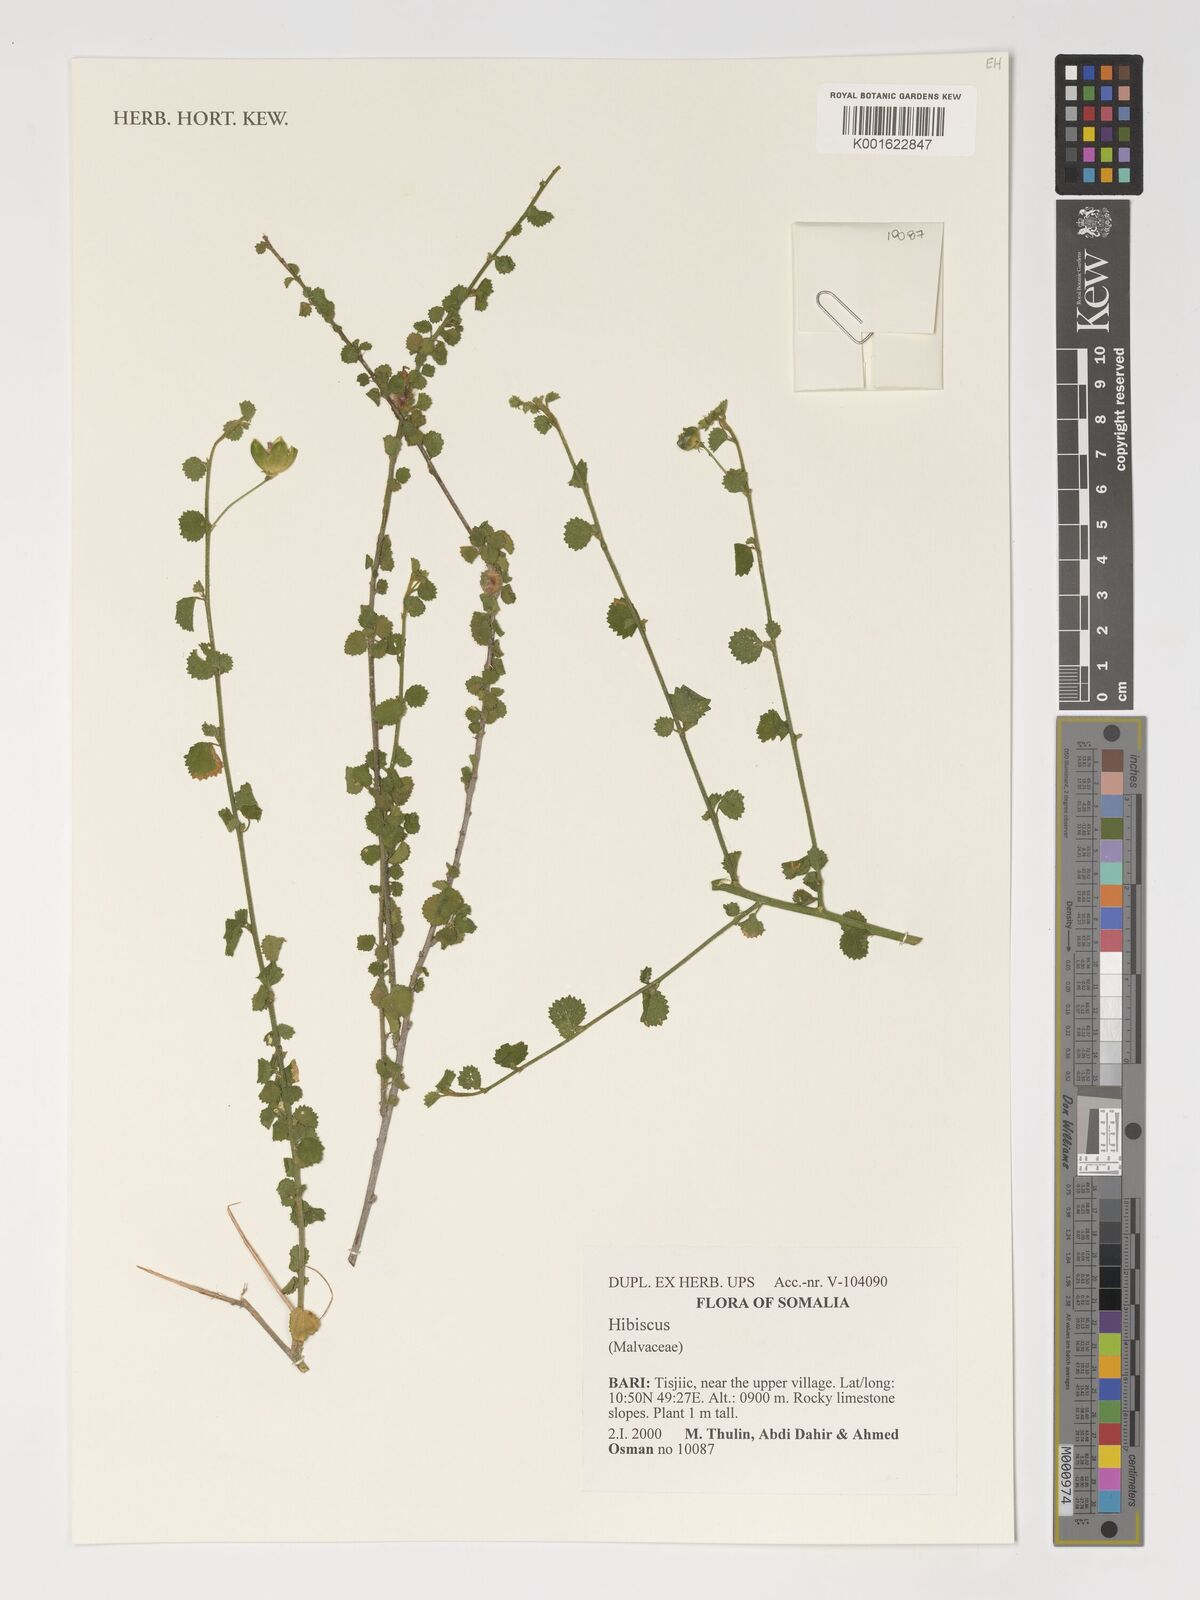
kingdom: Plantae
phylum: Tracheophyta
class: Magnoliopsida
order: Malvales
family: Malvaceae
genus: Hibiscus
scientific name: Hibiscus
